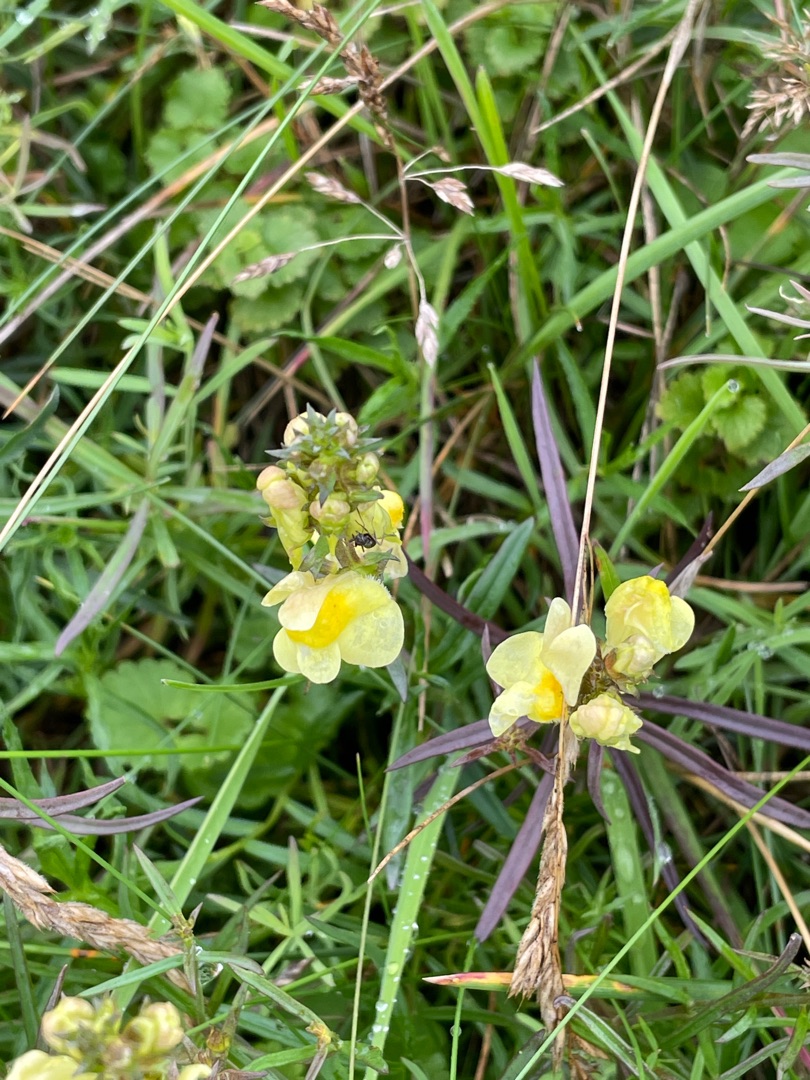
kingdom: Plantae
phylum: Tracheophyta
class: Magnoliopsida
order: Lamiales
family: Plantaginaceae
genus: Linaria
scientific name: Linaria vulgaris
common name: Almindelig torskemund
